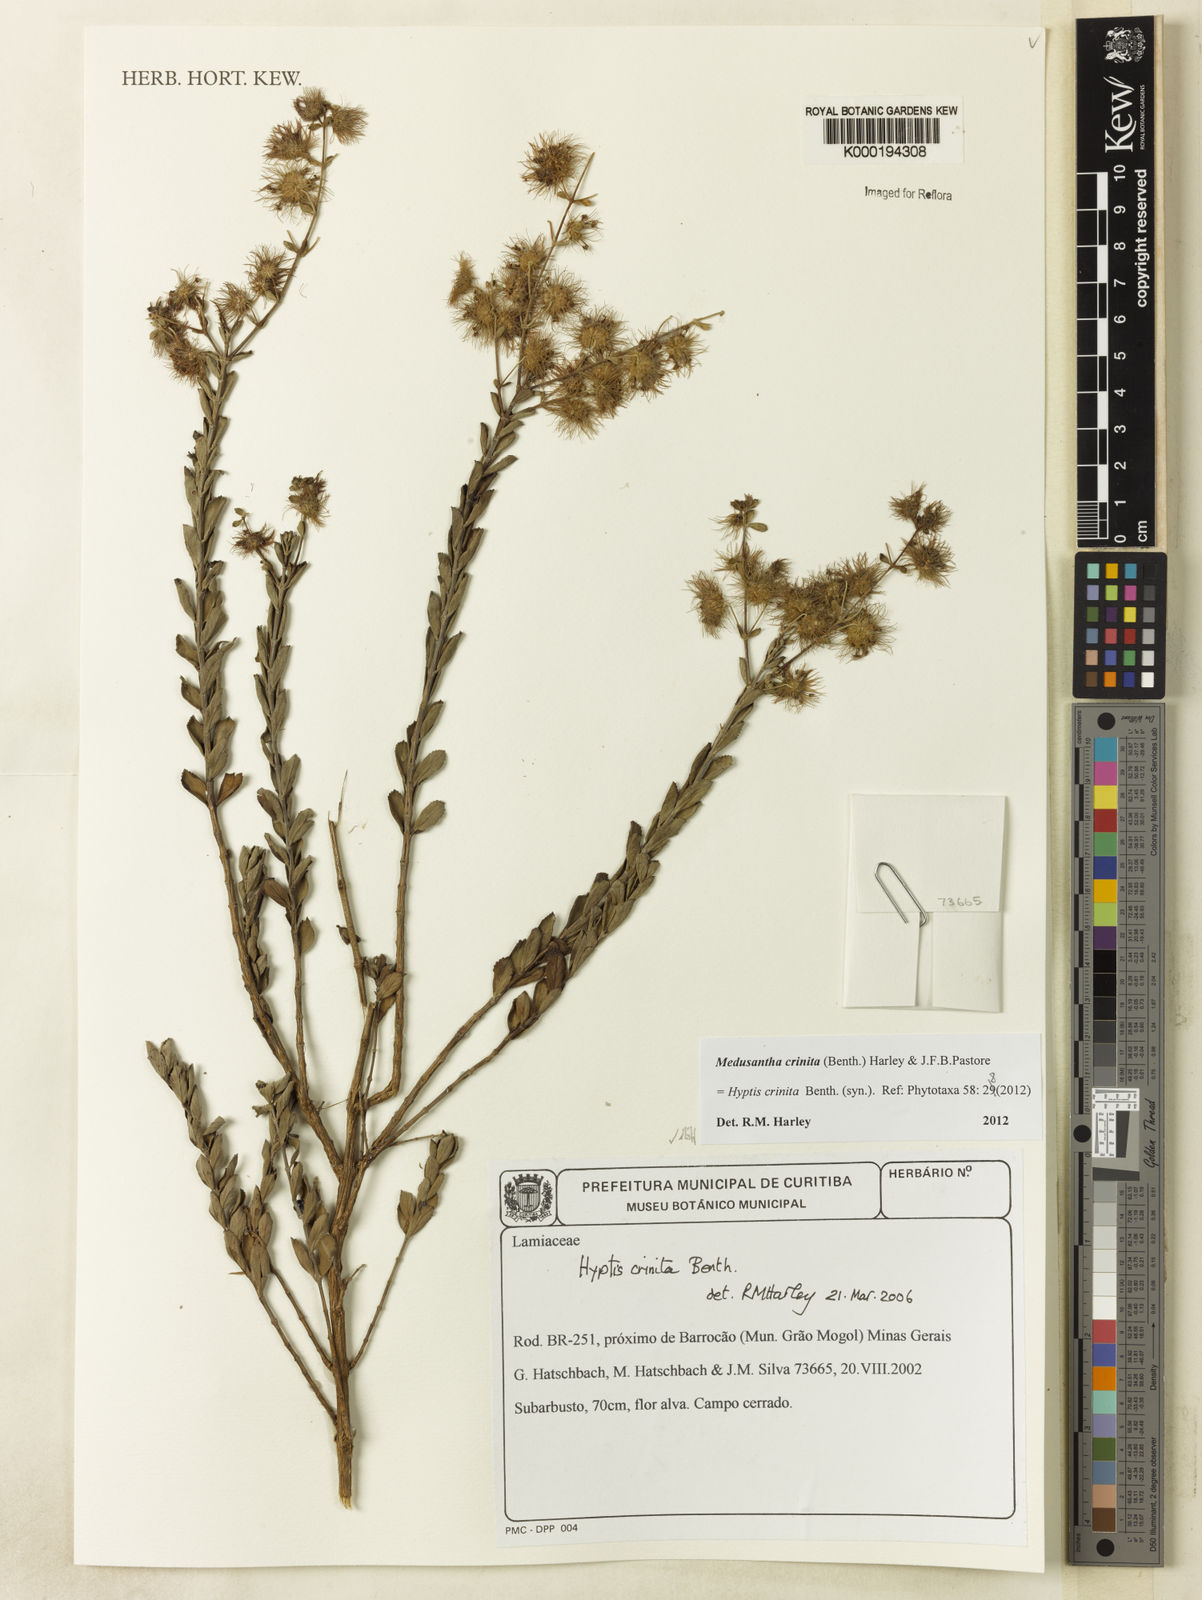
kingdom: Plantae
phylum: Tracheophyta
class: Magnoliopsida
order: Lamiales
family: Lamiaceae
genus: Medusantha
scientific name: Medusantha crinita
